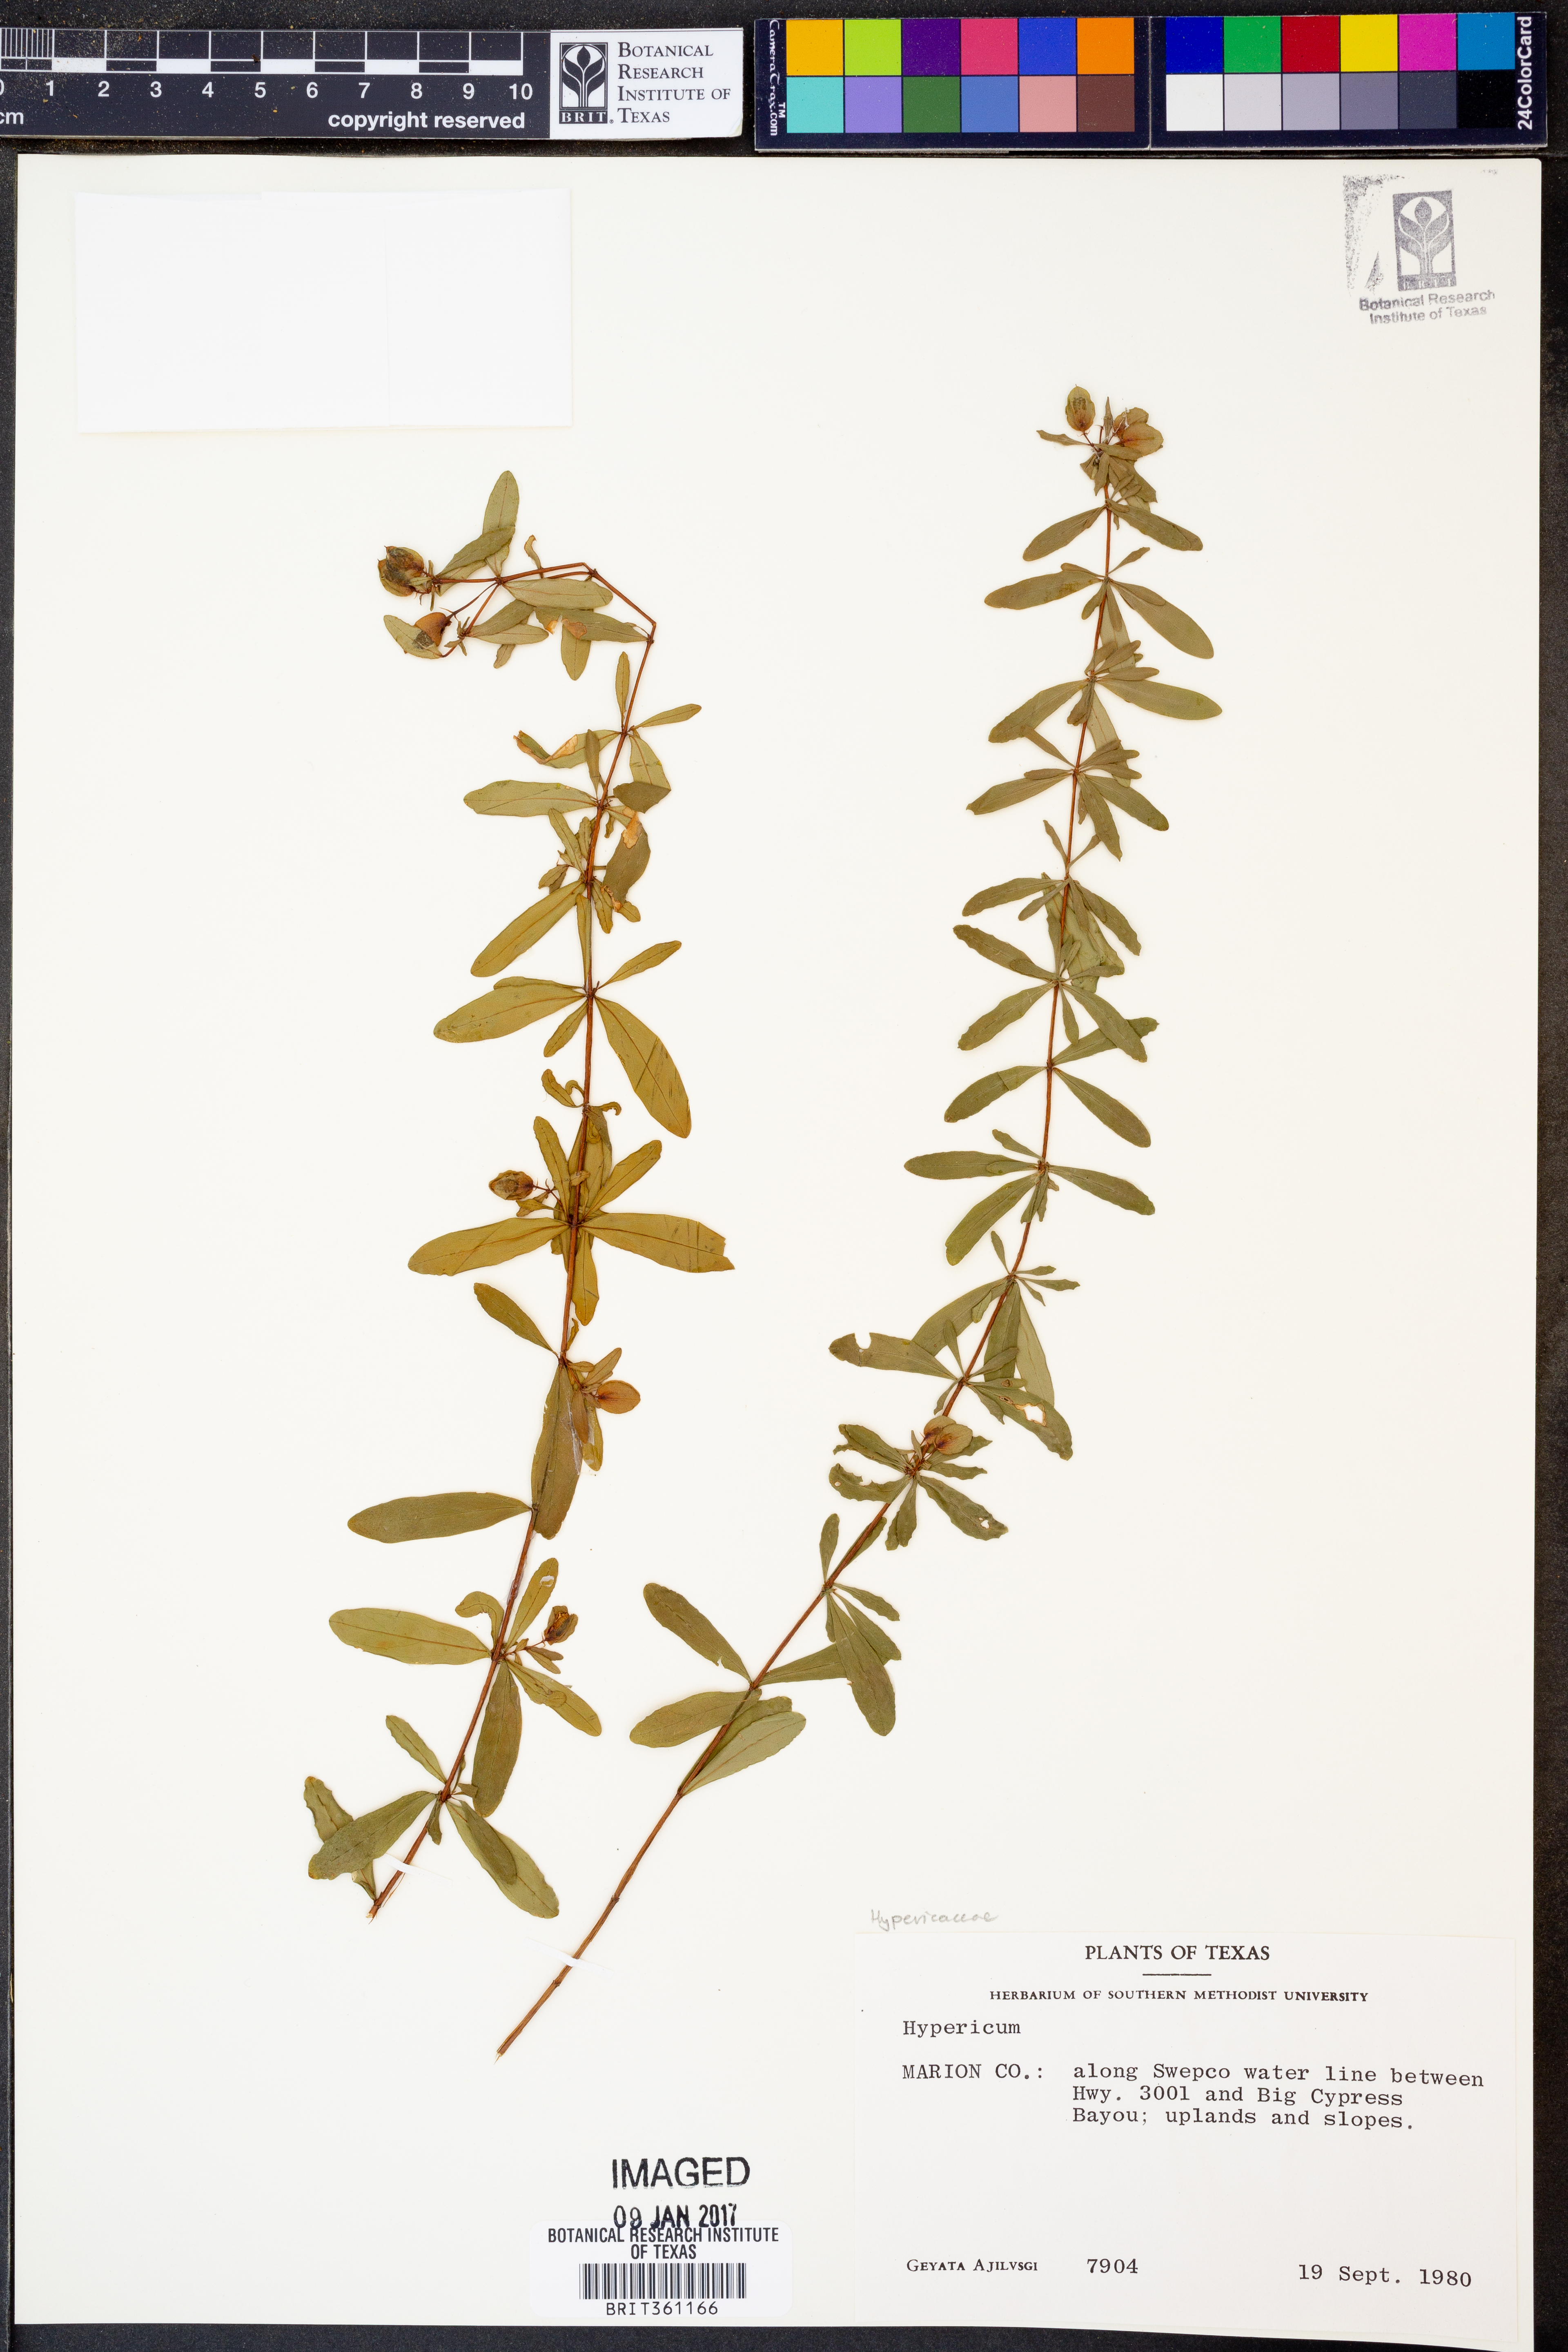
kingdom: Plantae
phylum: Tracheophyta
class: Magnoliopsida
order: Malpighiales
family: Hypericaceae
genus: Hypericum
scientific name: Hypericum
